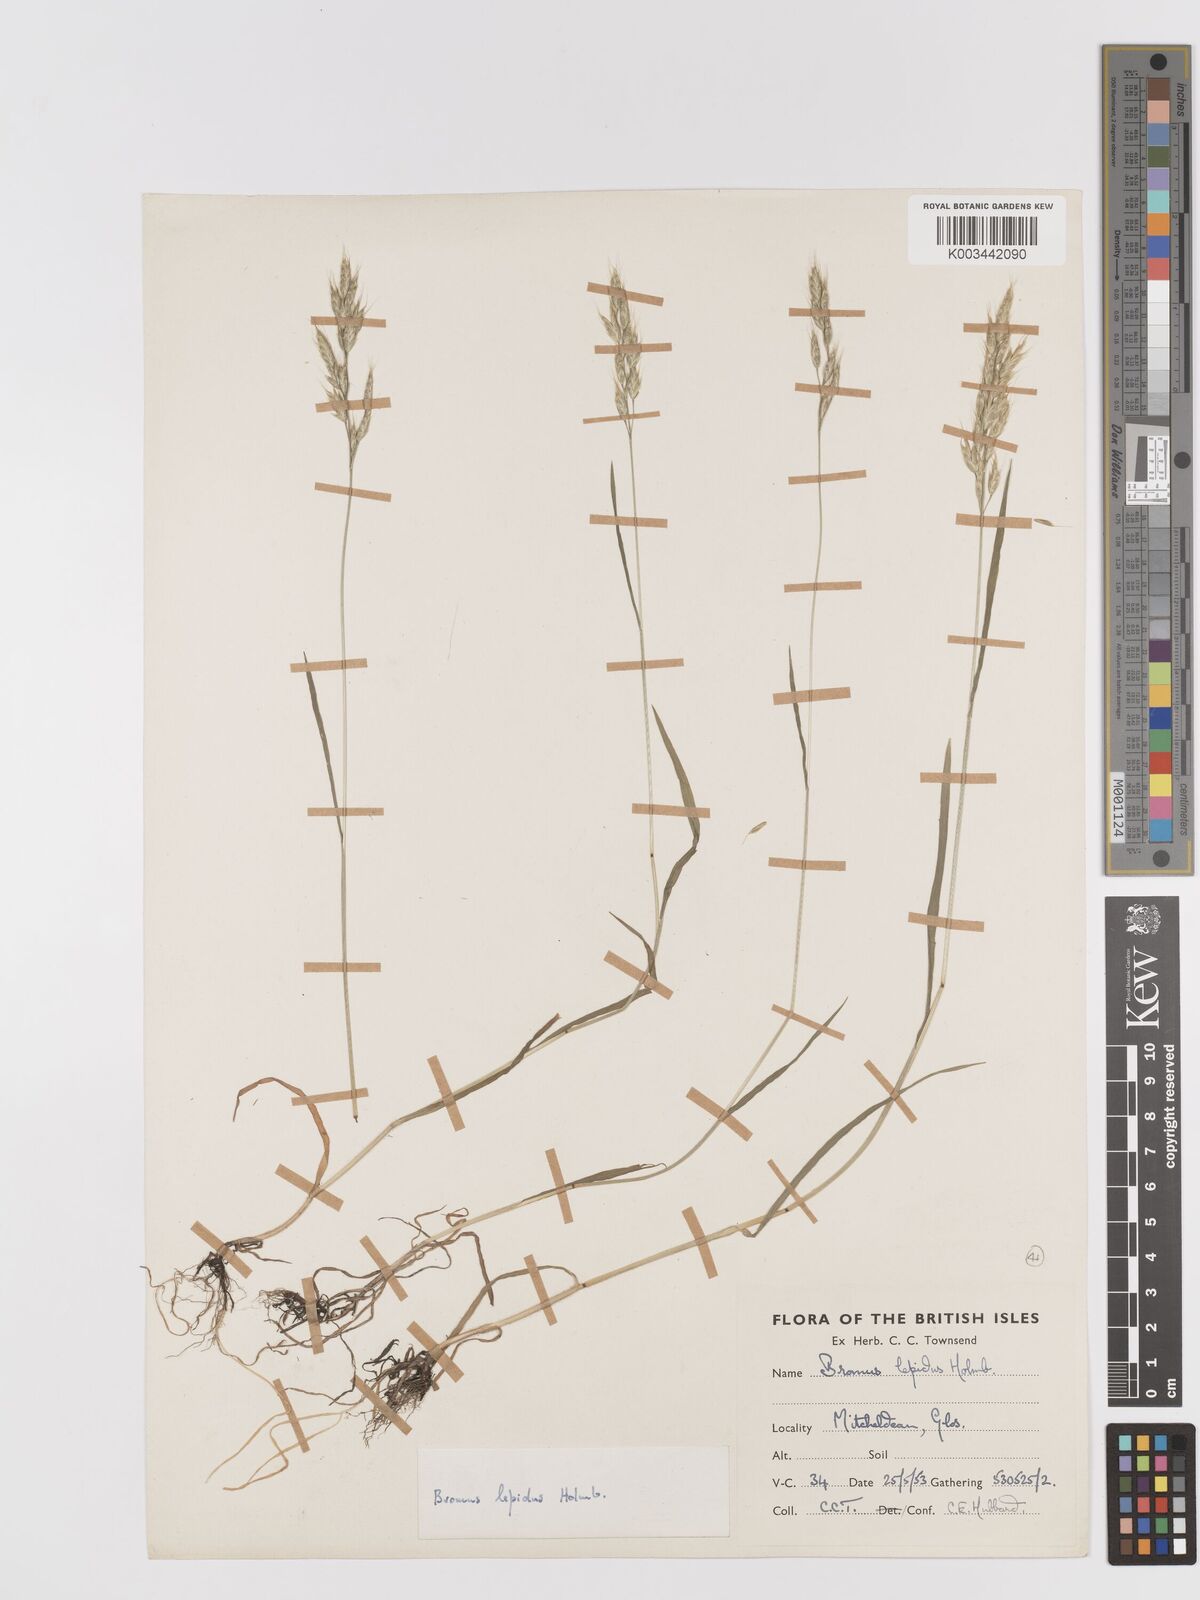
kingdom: Plantae
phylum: Tracheophyta
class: Liliopsida
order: Poales
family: Poaceae
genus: Bromus
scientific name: Bromus lepidus
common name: Slender soft-brome
